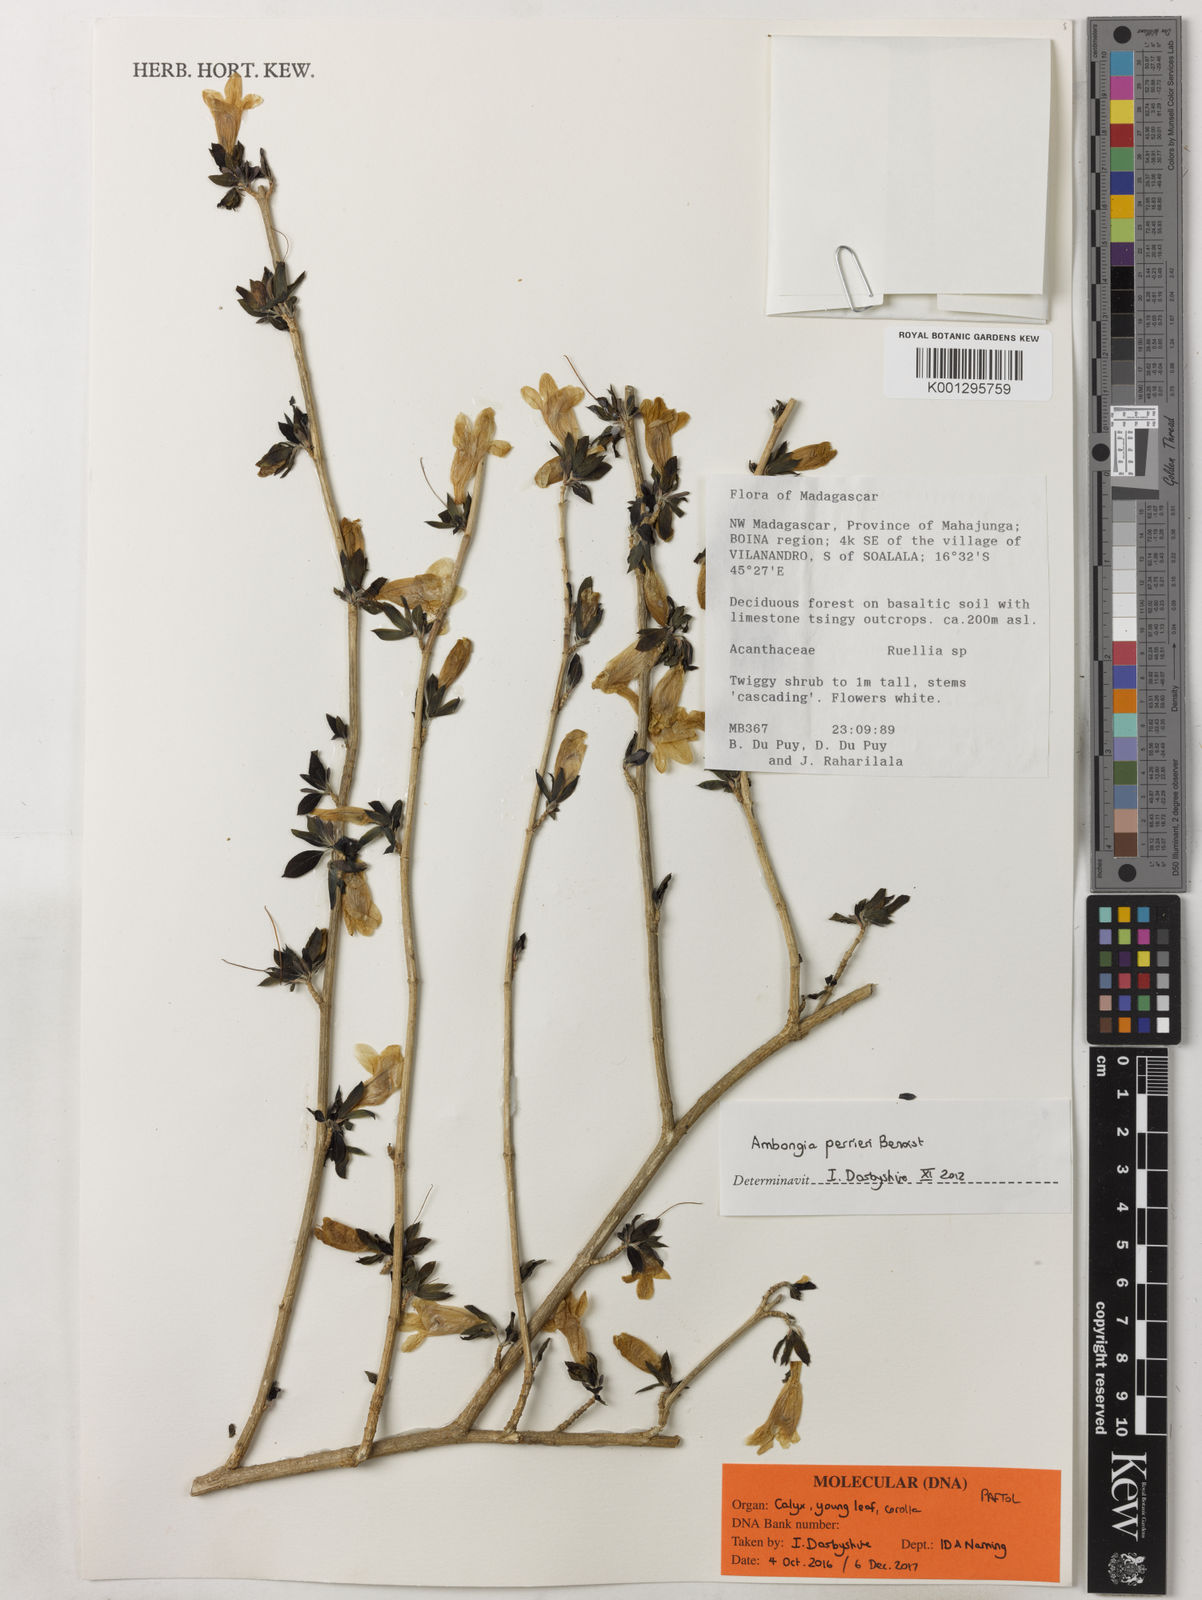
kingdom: Plantae
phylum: Tracheophyta
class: Magnoliopsida
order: Lamiales
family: Acanthaceae
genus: Ambongia
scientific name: Ambongia perrieri
